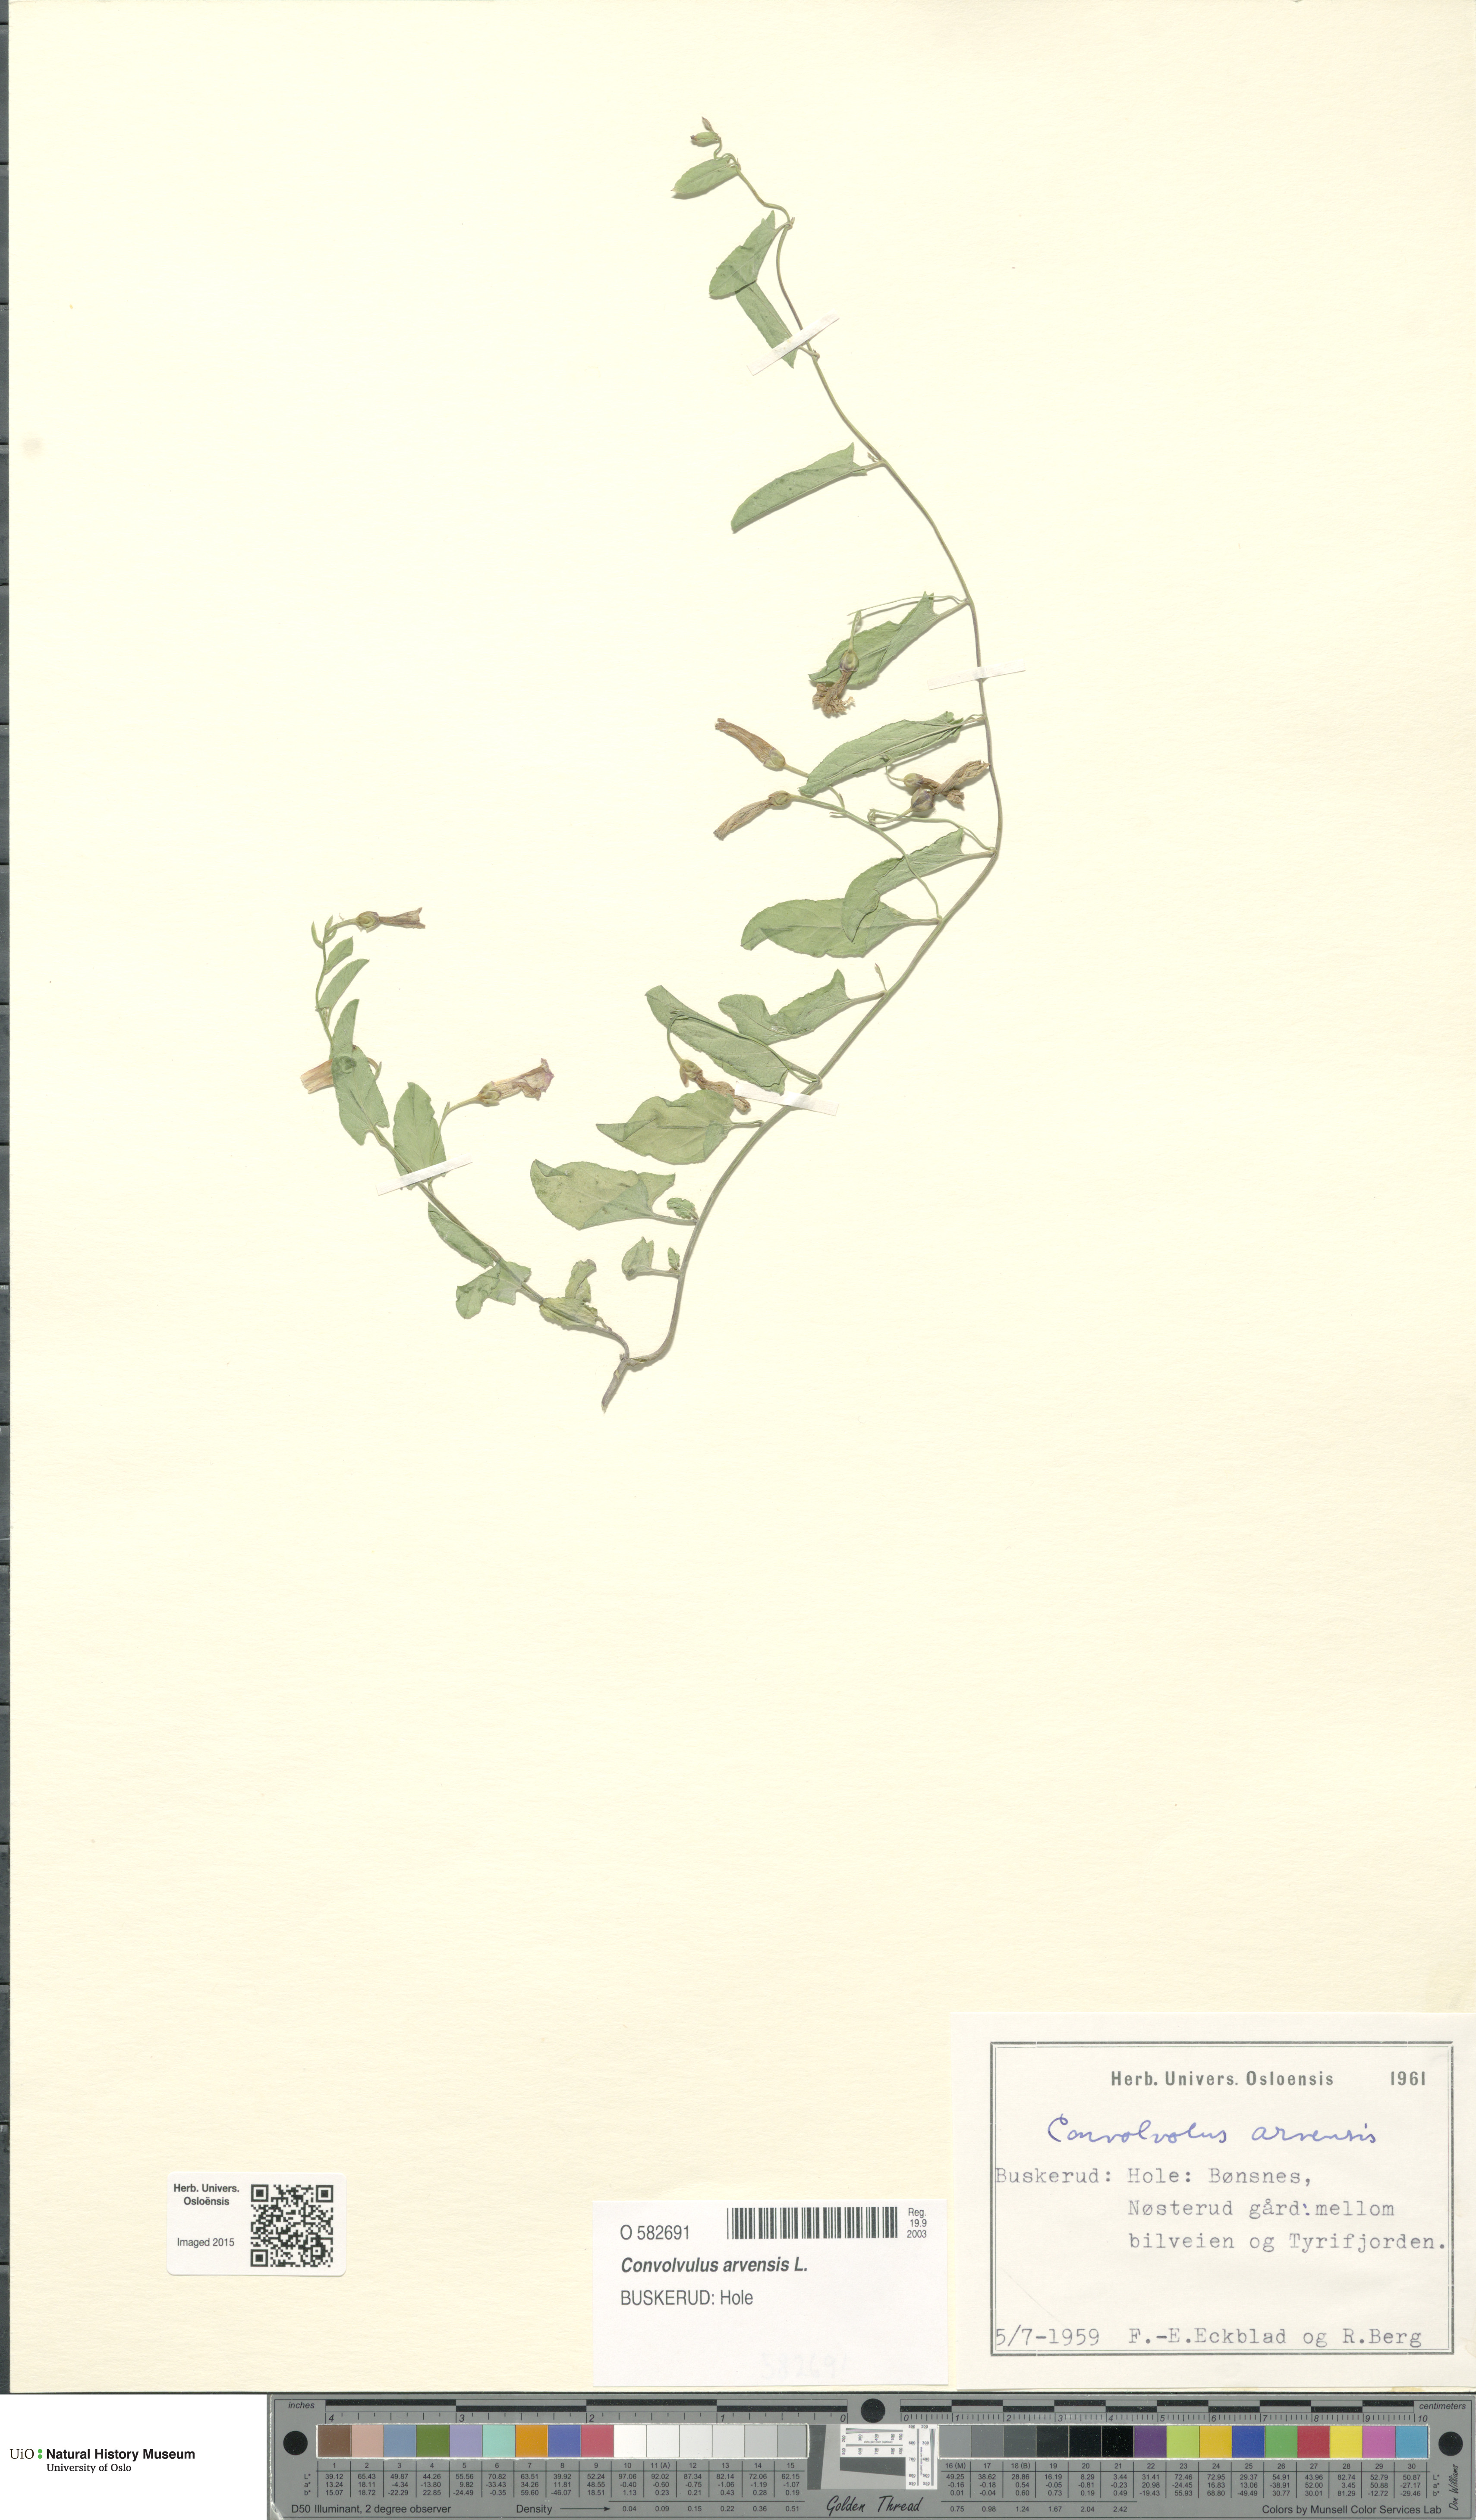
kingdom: Plantae
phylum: Tracheophyta
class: Magnoliopsida
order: Solanales
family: Convolvulaceae
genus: Convolvulus
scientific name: Convolvulus arvensis
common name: Field bindweed
